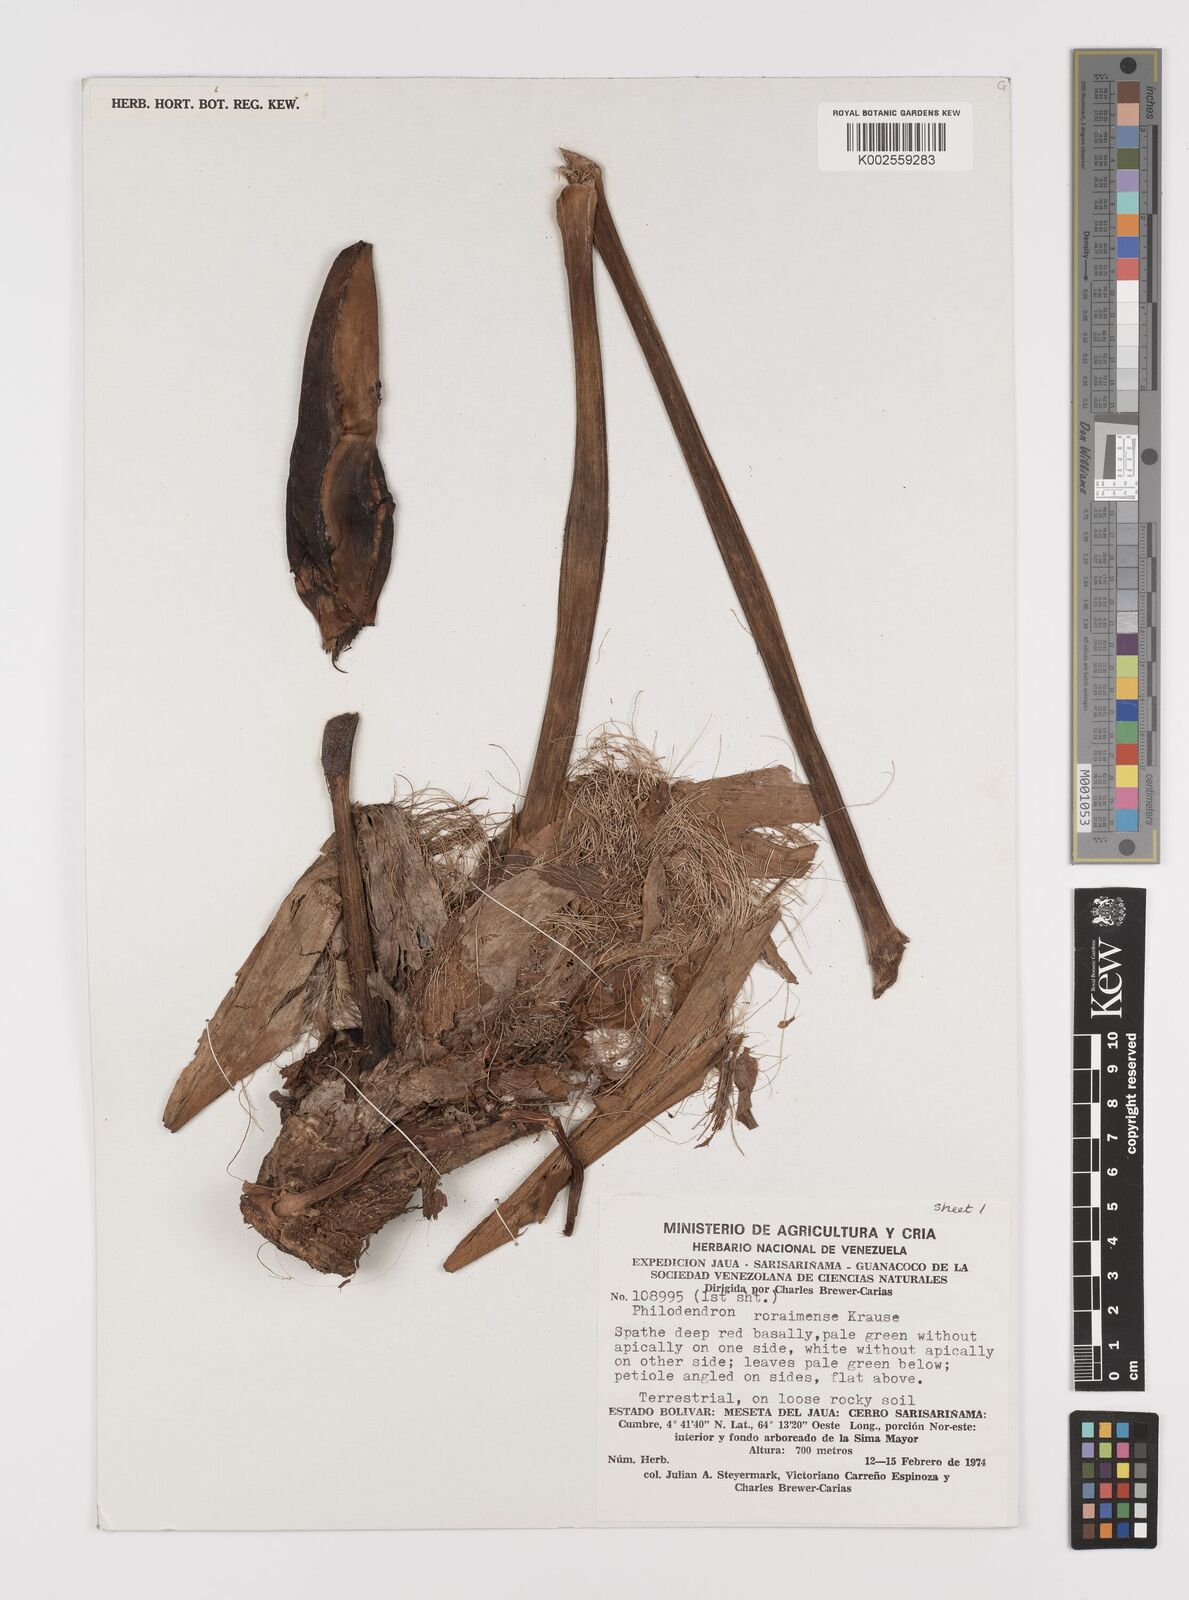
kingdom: Plantae
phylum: Tracheophyta
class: Liliopsida
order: Alismatales
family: Araceae
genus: Philodendron
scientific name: Philodendron roraimae
